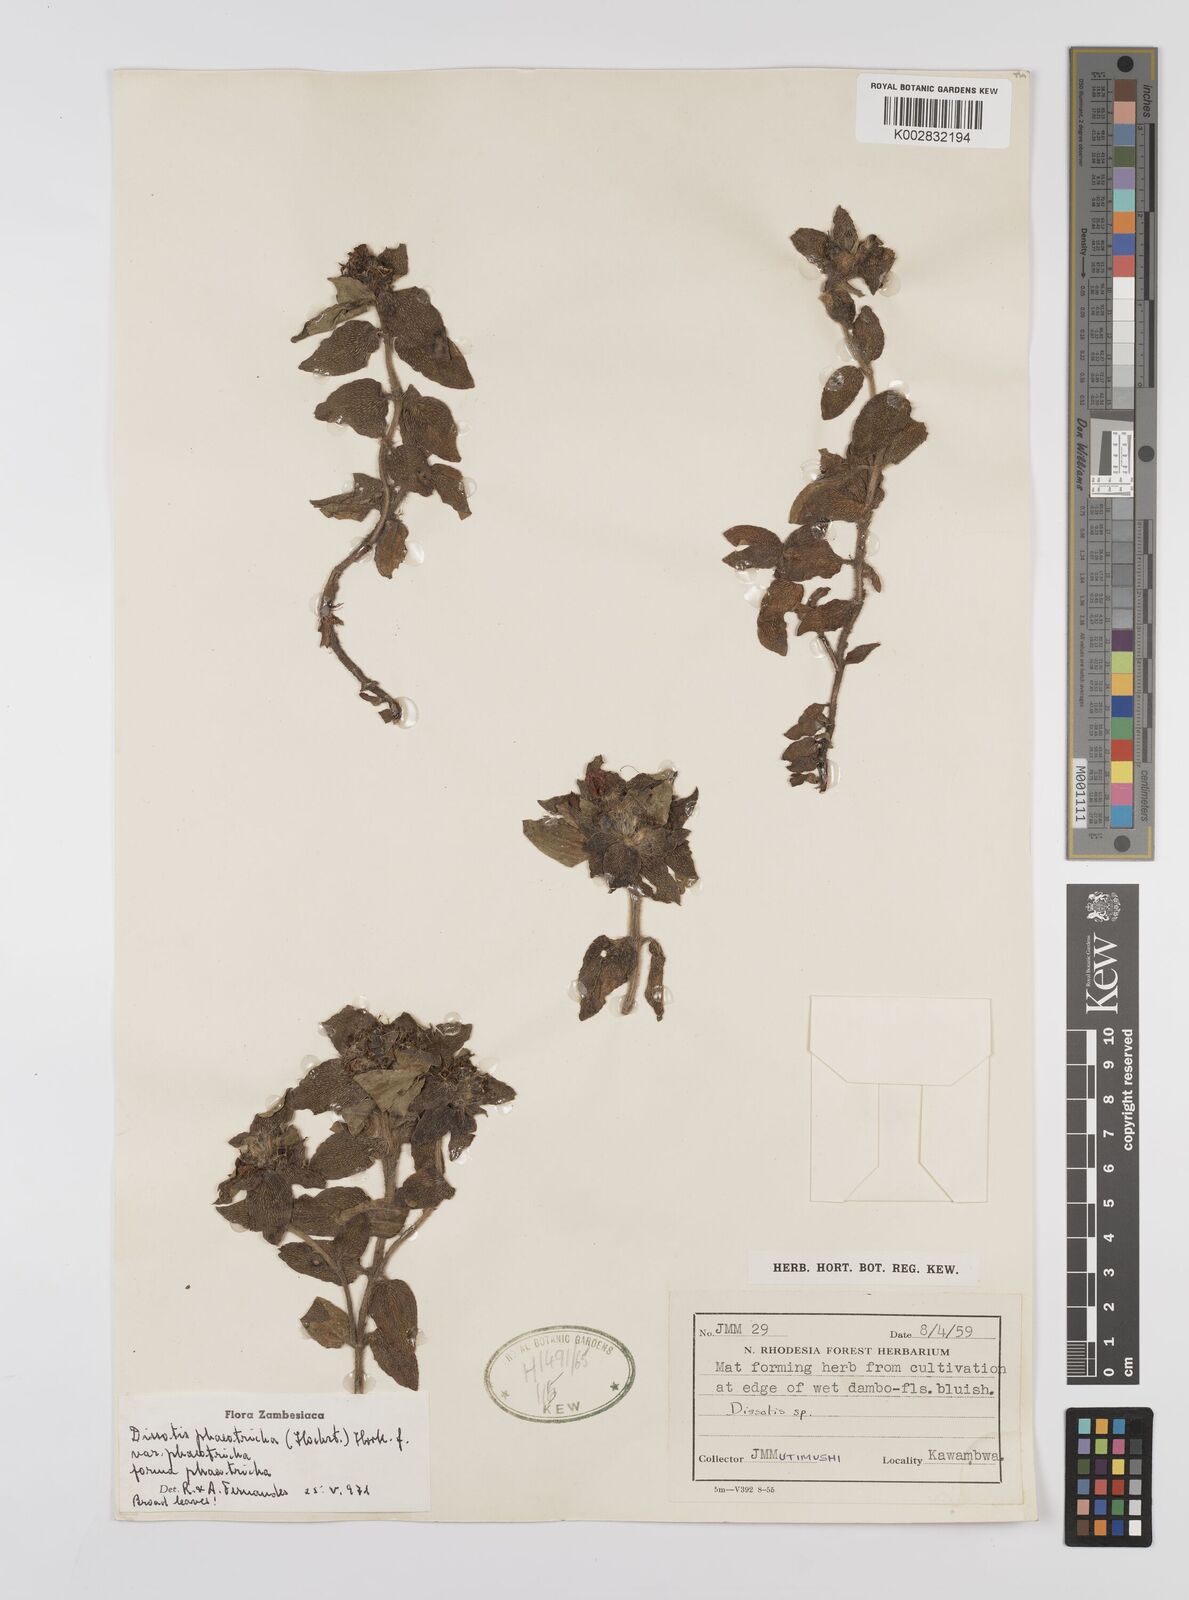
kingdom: Plantae
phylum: Tracheophyta
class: Magnoliopsida
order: Myrtales
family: Melastomataceae
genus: Antherotoma
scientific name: Antherotoma phaeotricha
